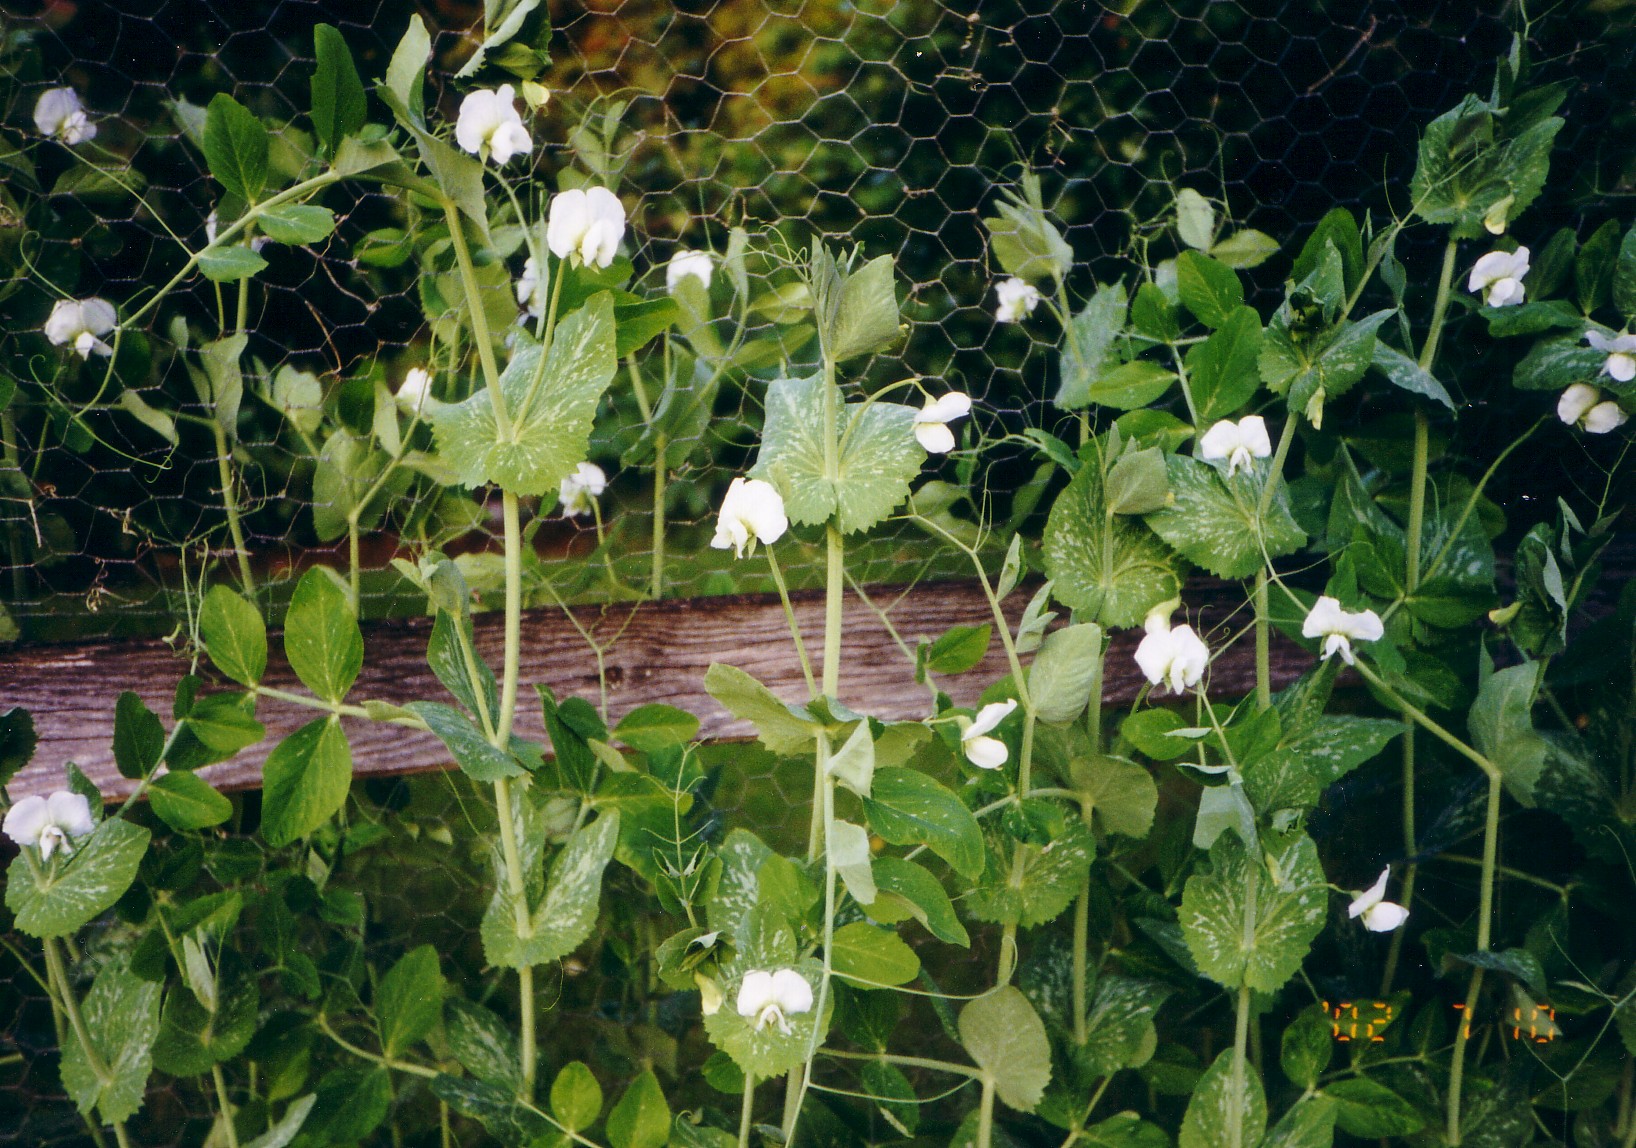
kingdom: Plantae
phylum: Tracheophyta
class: Magnoliopsida
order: Fabales
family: Fabaceae
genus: Lathyrus
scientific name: Lathyrus oleraceus
